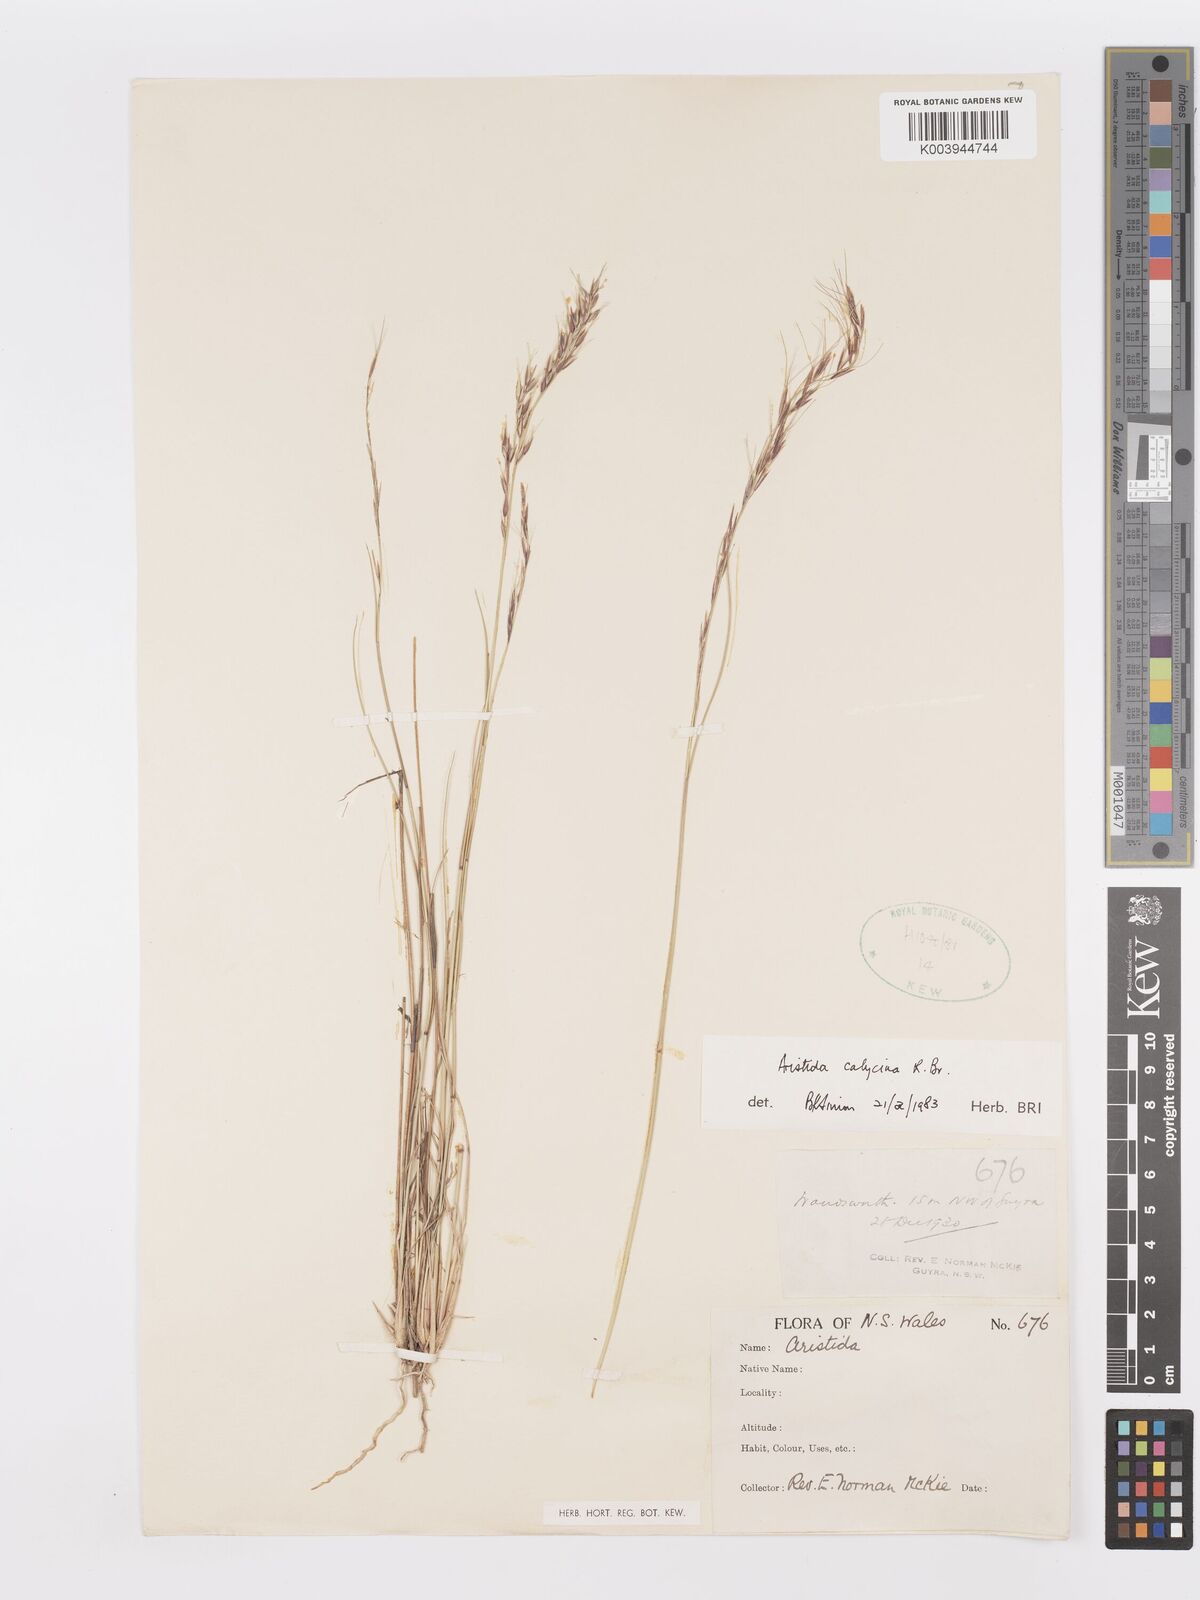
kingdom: Plantae
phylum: Tracheophyta
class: Liliopsida
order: Poales
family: Poaceae
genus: Aristida
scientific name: Aristida calycina
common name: Dark wire grass
